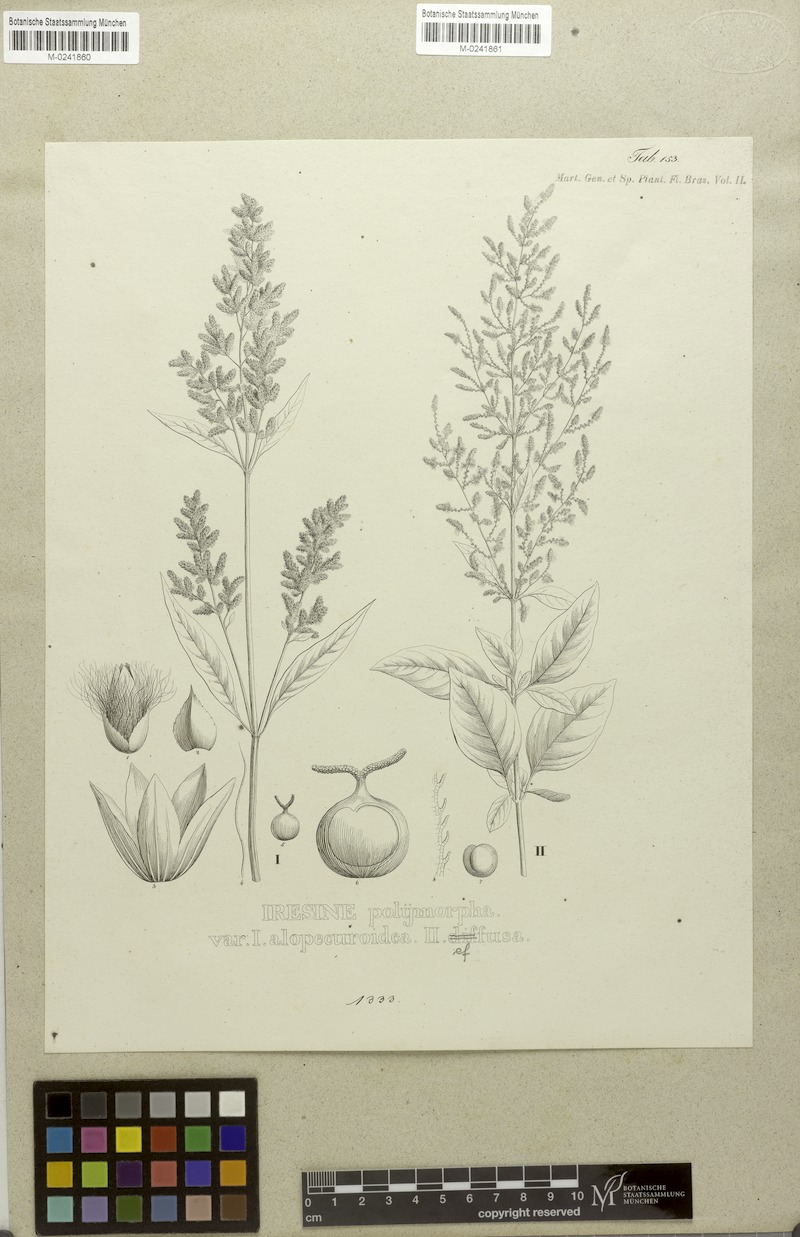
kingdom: Plantae
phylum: Tracheophyta
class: Magnoliopsida
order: Caryophyllales
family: Amaranthaceae
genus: Iresine
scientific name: Iresine diffusa
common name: Juba's-bush
